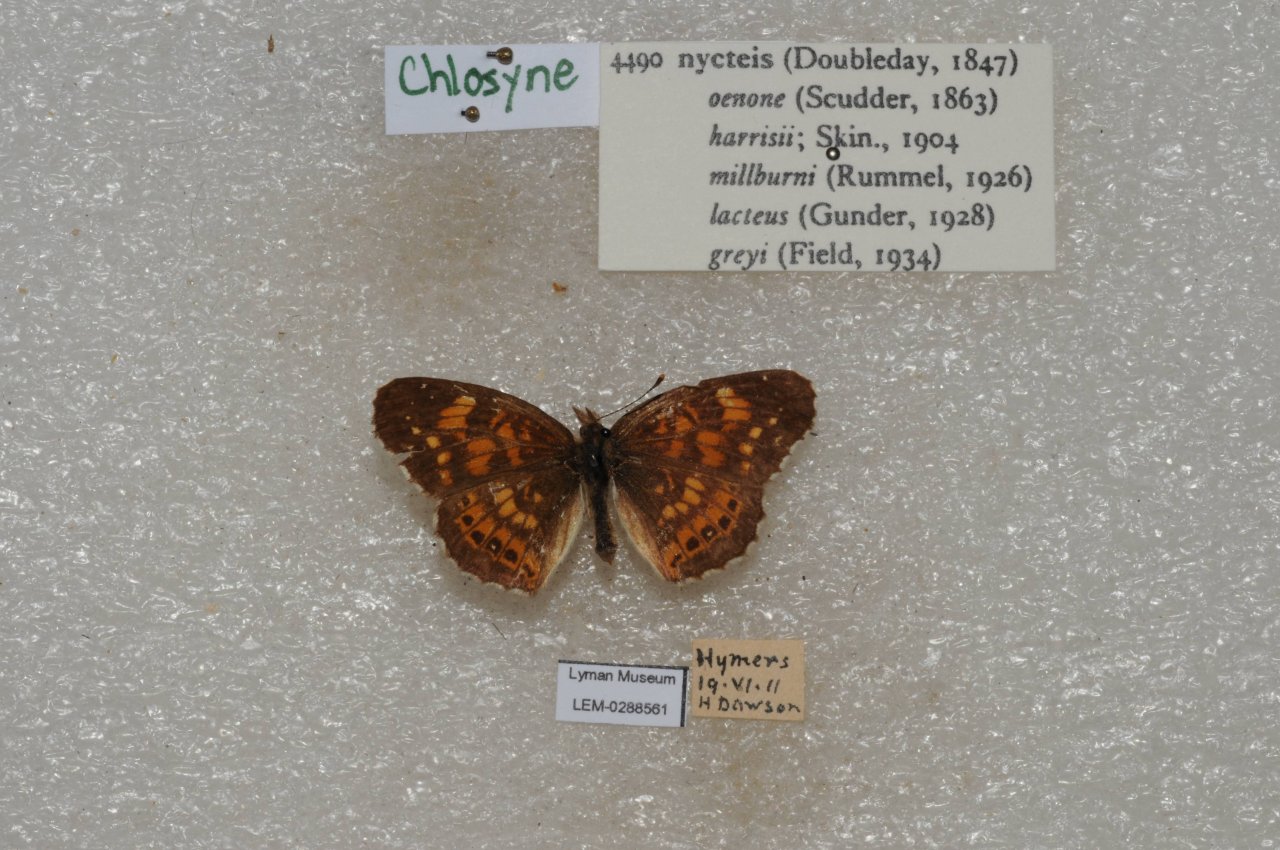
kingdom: Animalia
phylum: Arthropoda
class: Insecta
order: Lepidoptera
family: Nymphalidae
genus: Chlosyne
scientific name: Chlosyne nycteis
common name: Silvery Checkerspot
